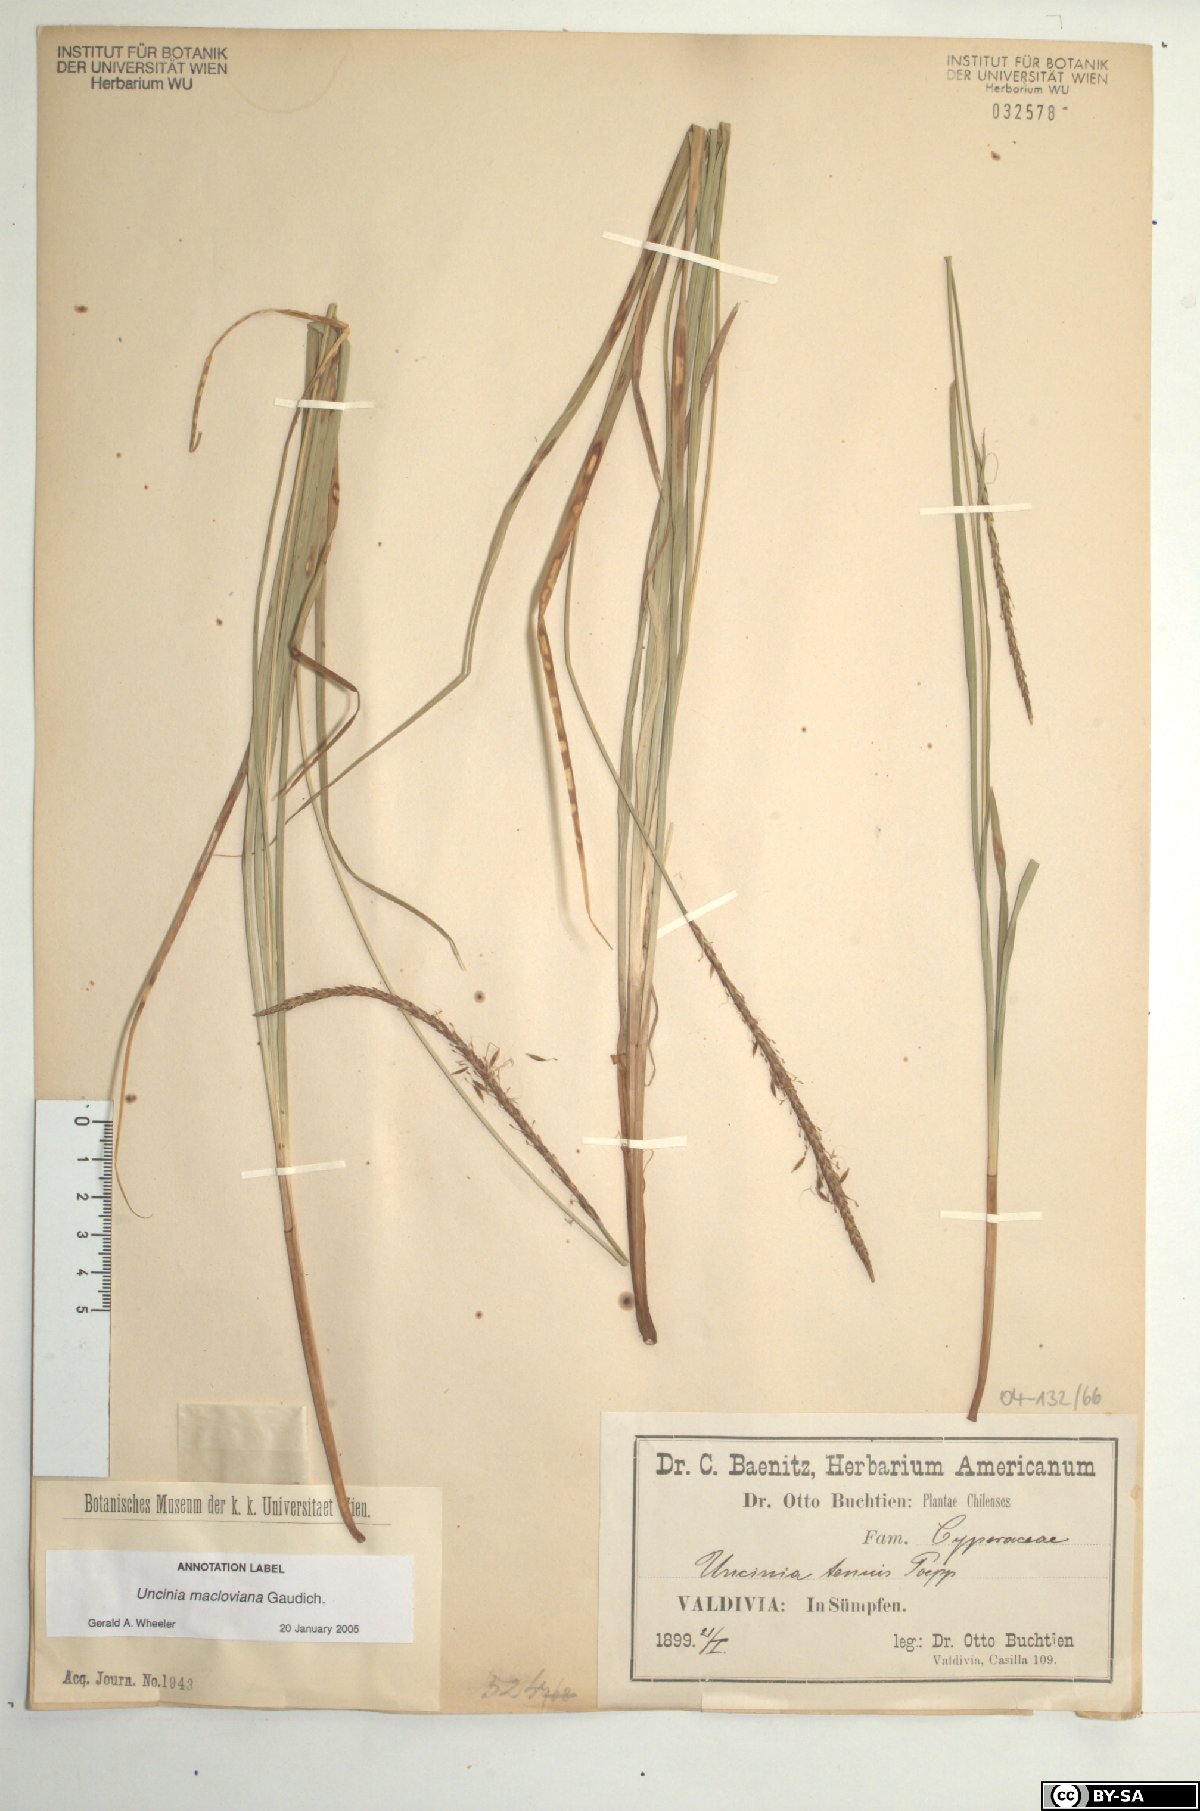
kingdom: Plantae
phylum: Tracheophyta
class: Liliopsida
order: Poales
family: Cyperaceae
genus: Carex
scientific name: Carex firmula
